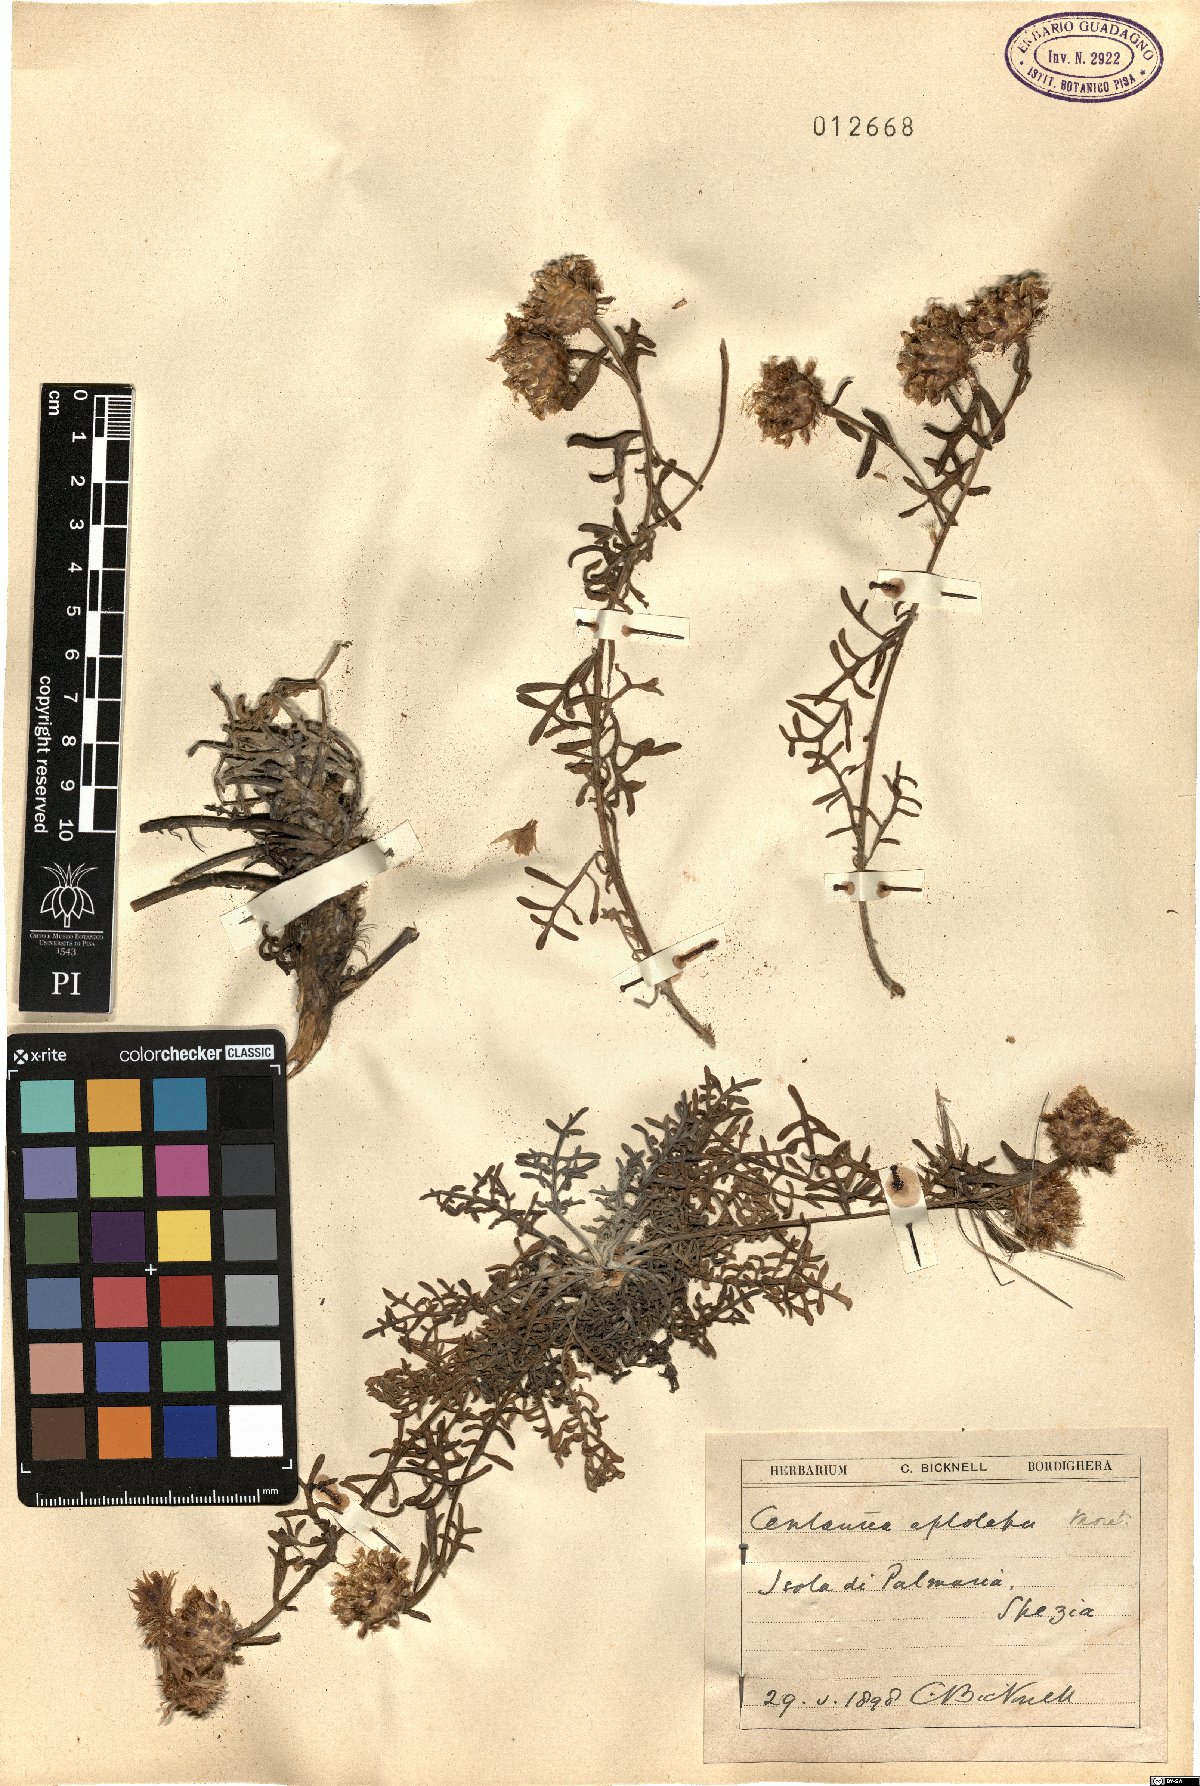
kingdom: Plantae
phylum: Tracheophyta
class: Magnoliopsida
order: Asterales
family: Asteraceae
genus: Centaurea
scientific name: Centaurea aplolepa
